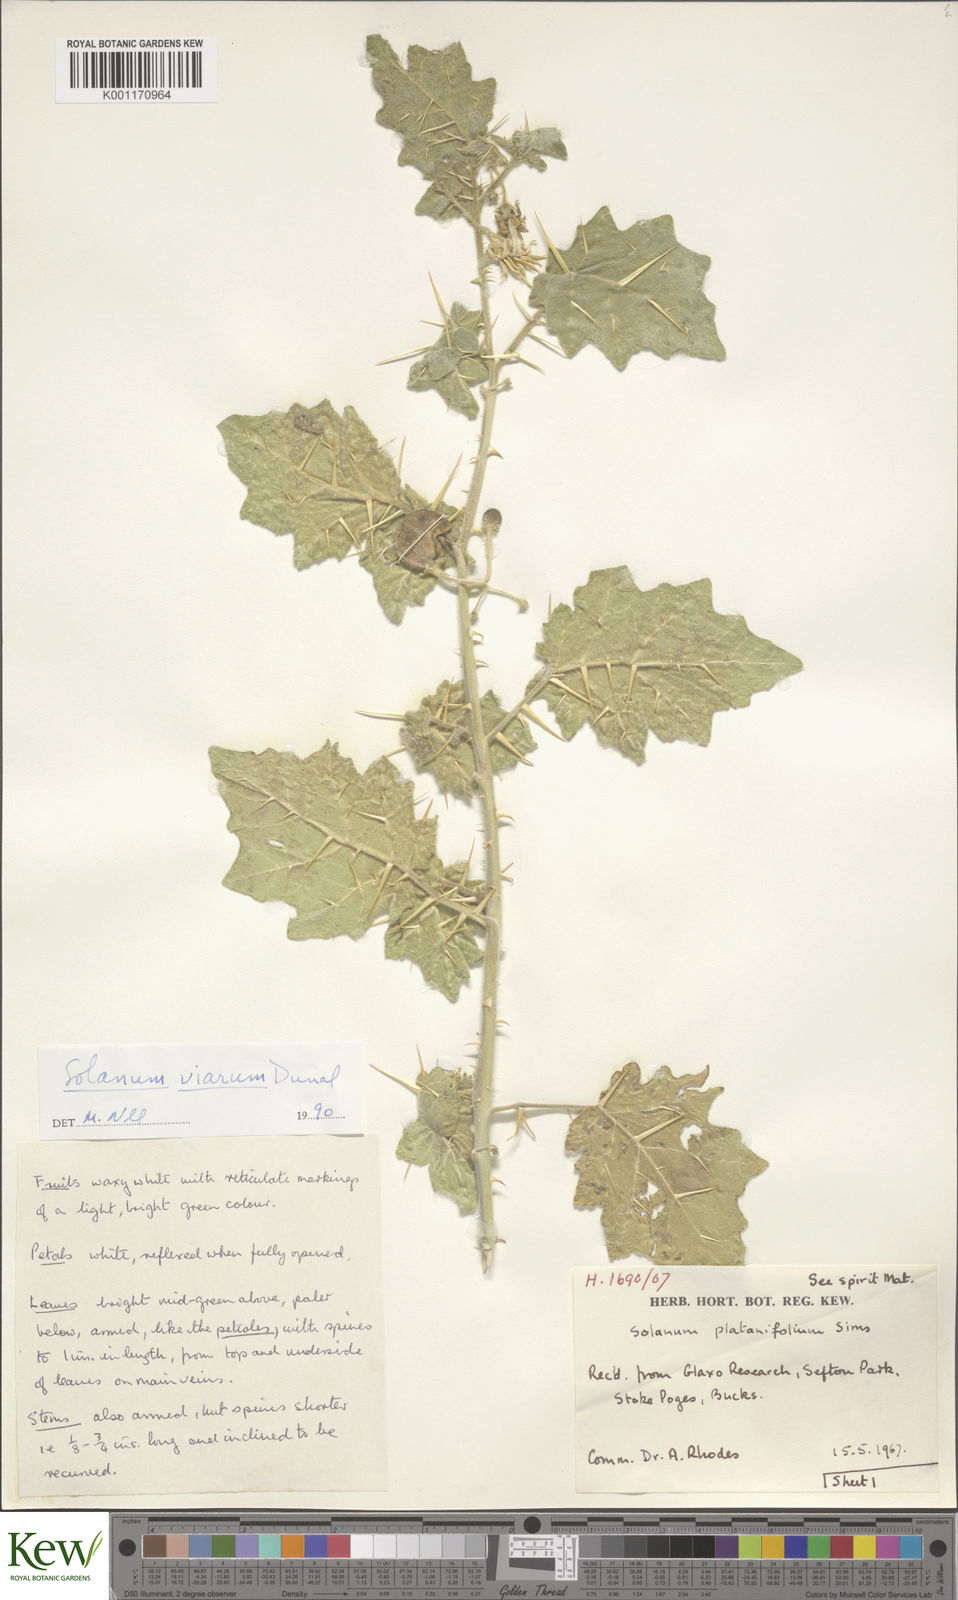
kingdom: Plantae
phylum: Tracheophyta
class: Magnoliopsida
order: Solanales
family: Solanaceae
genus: Solanum
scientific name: Solanum viarum
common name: Tropical soda apple
